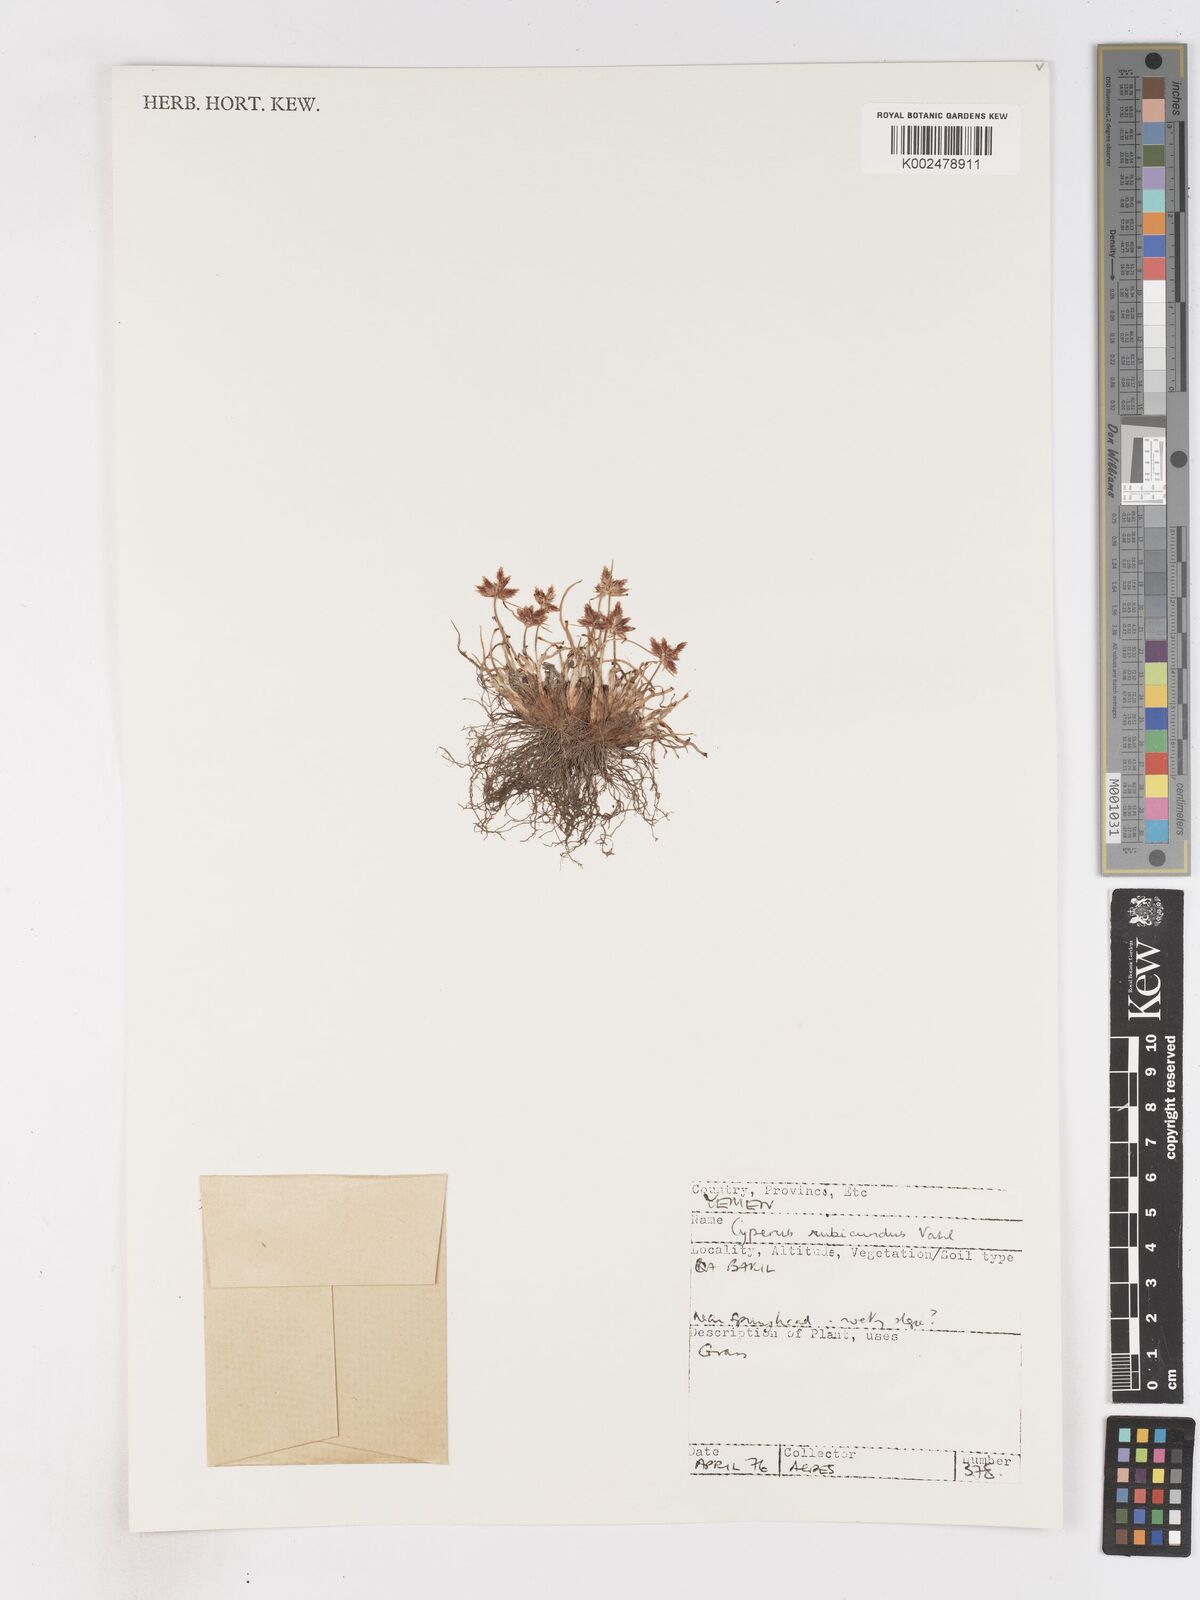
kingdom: Plantae
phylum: Tracheophyta
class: Liliopsida
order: Poales
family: Cyperaceae
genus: Cyperus
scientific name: Cyperus rubicundus
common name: Coco-grass
